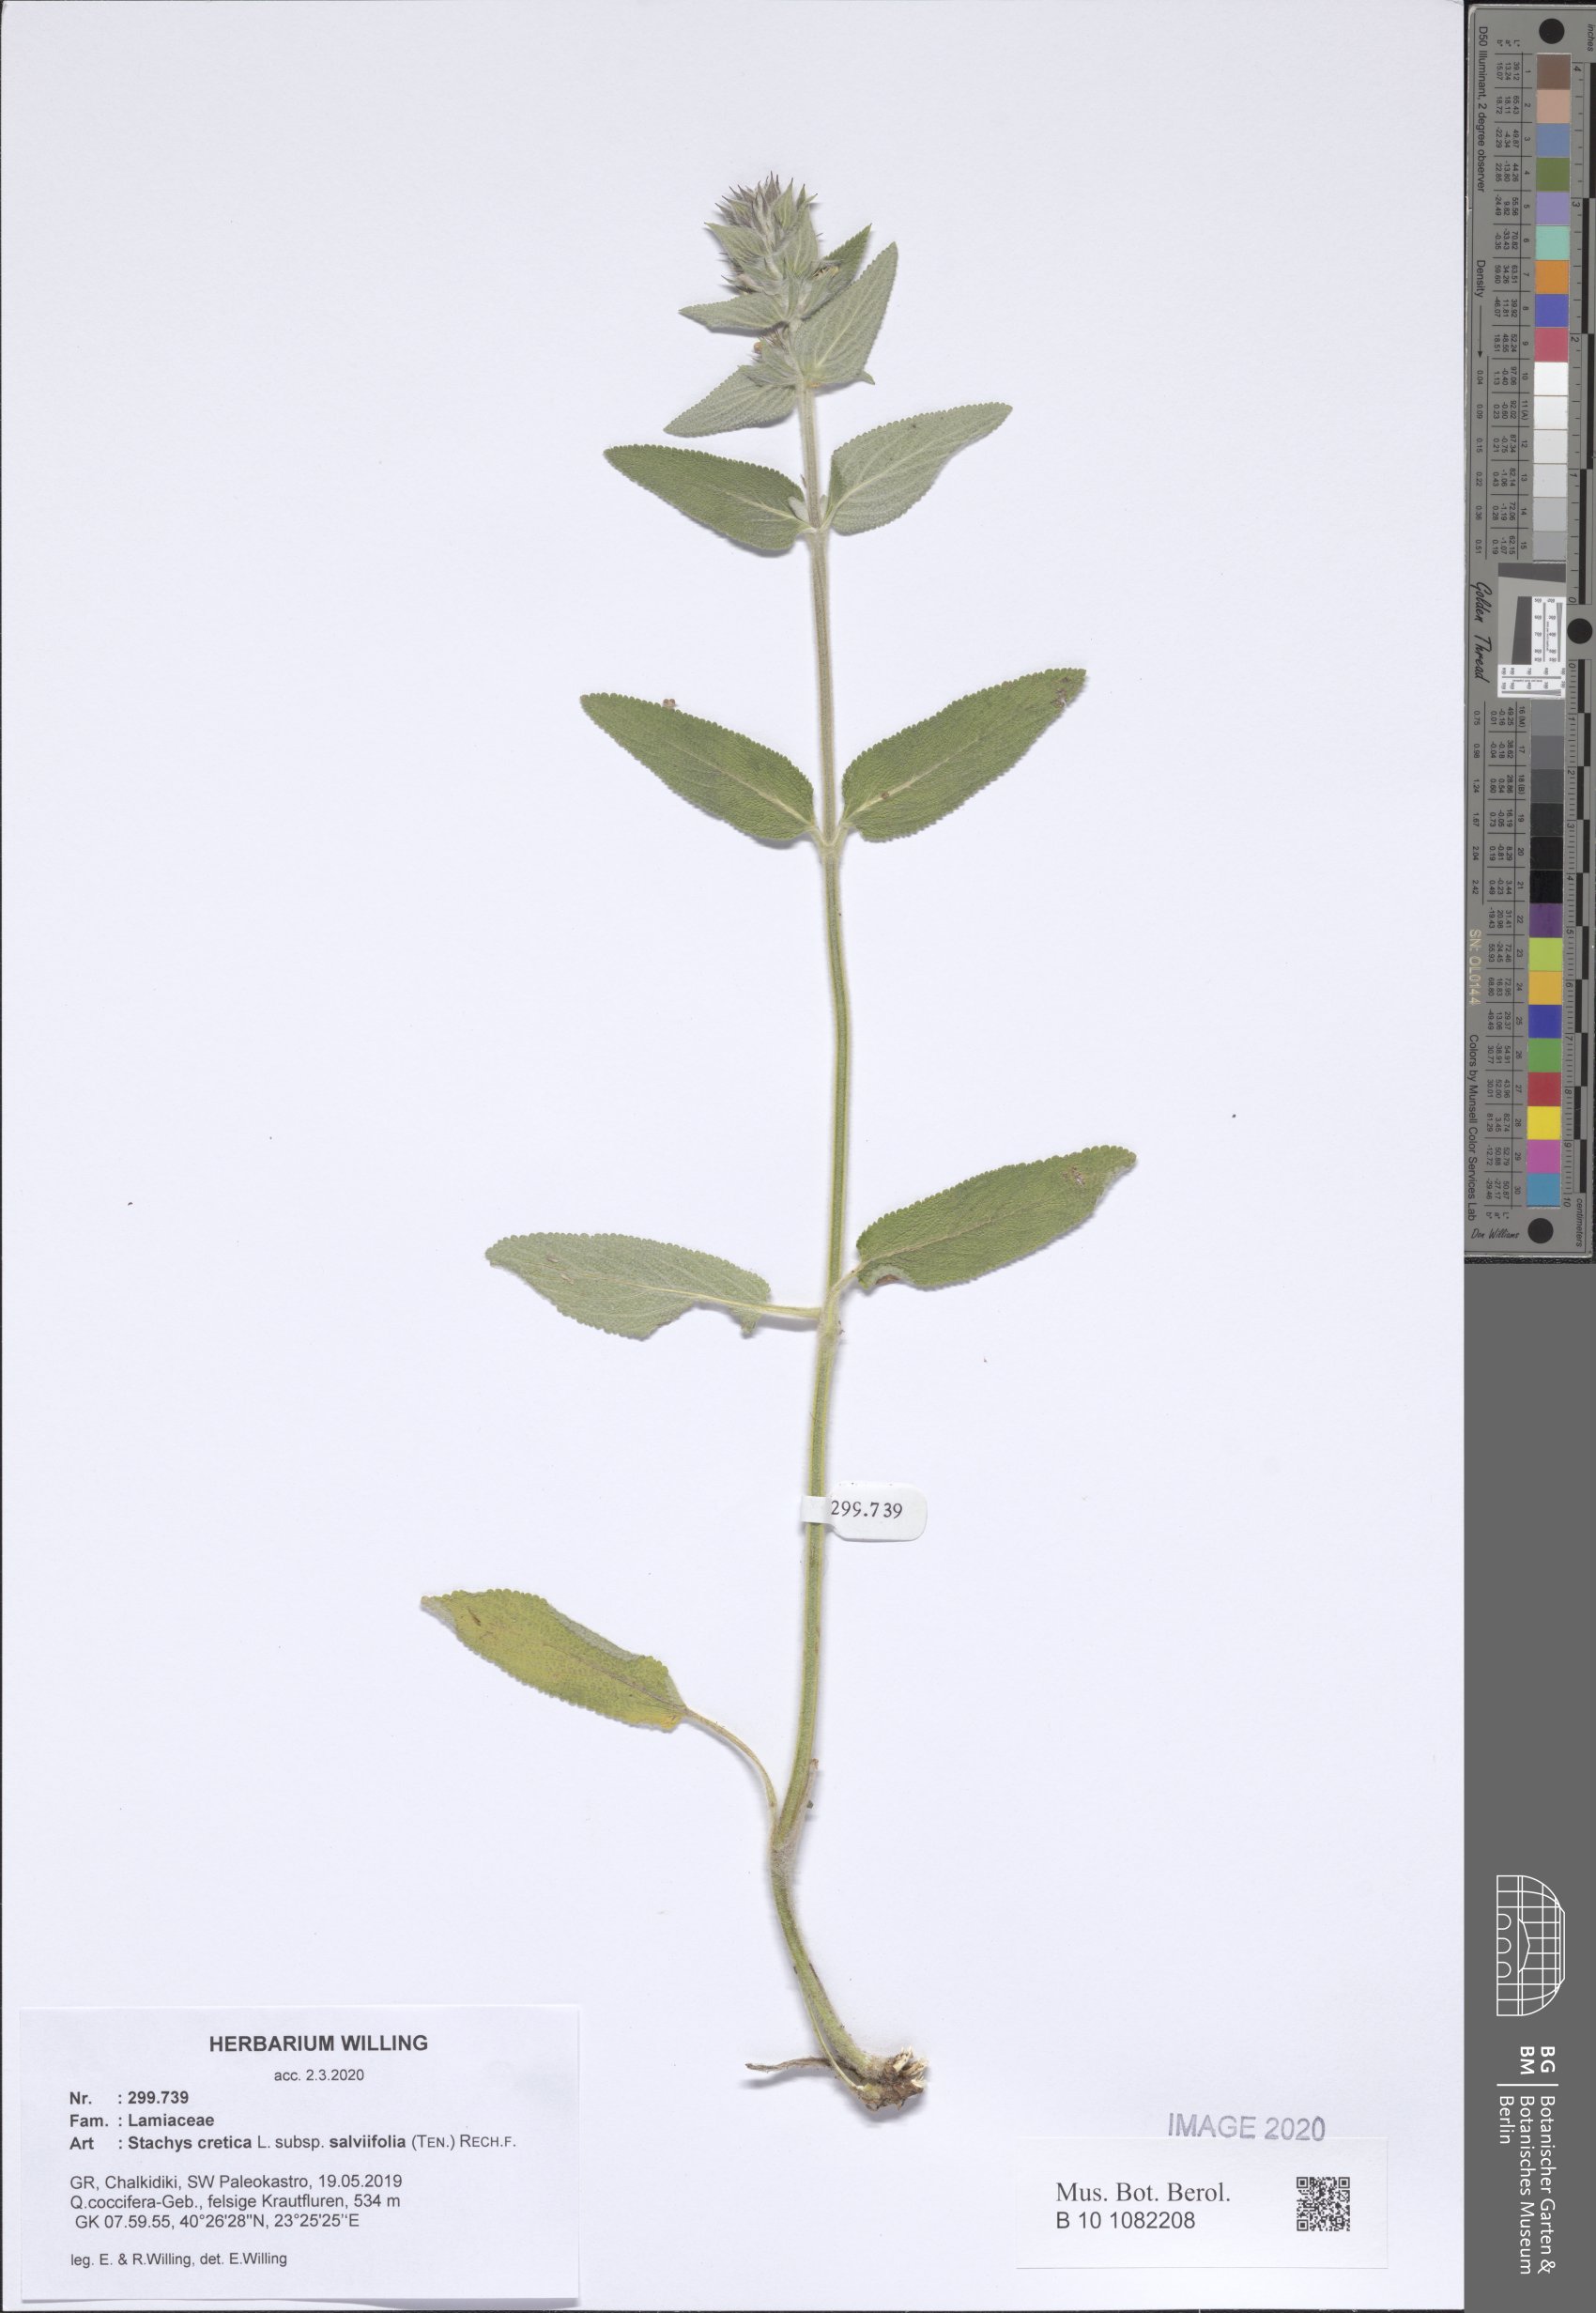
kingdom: Plantae
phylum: Tracheophyta
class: Magnoliopsida
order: Lamiales
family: Lamiaceae
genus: Stachys
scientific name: Stachys cretica
